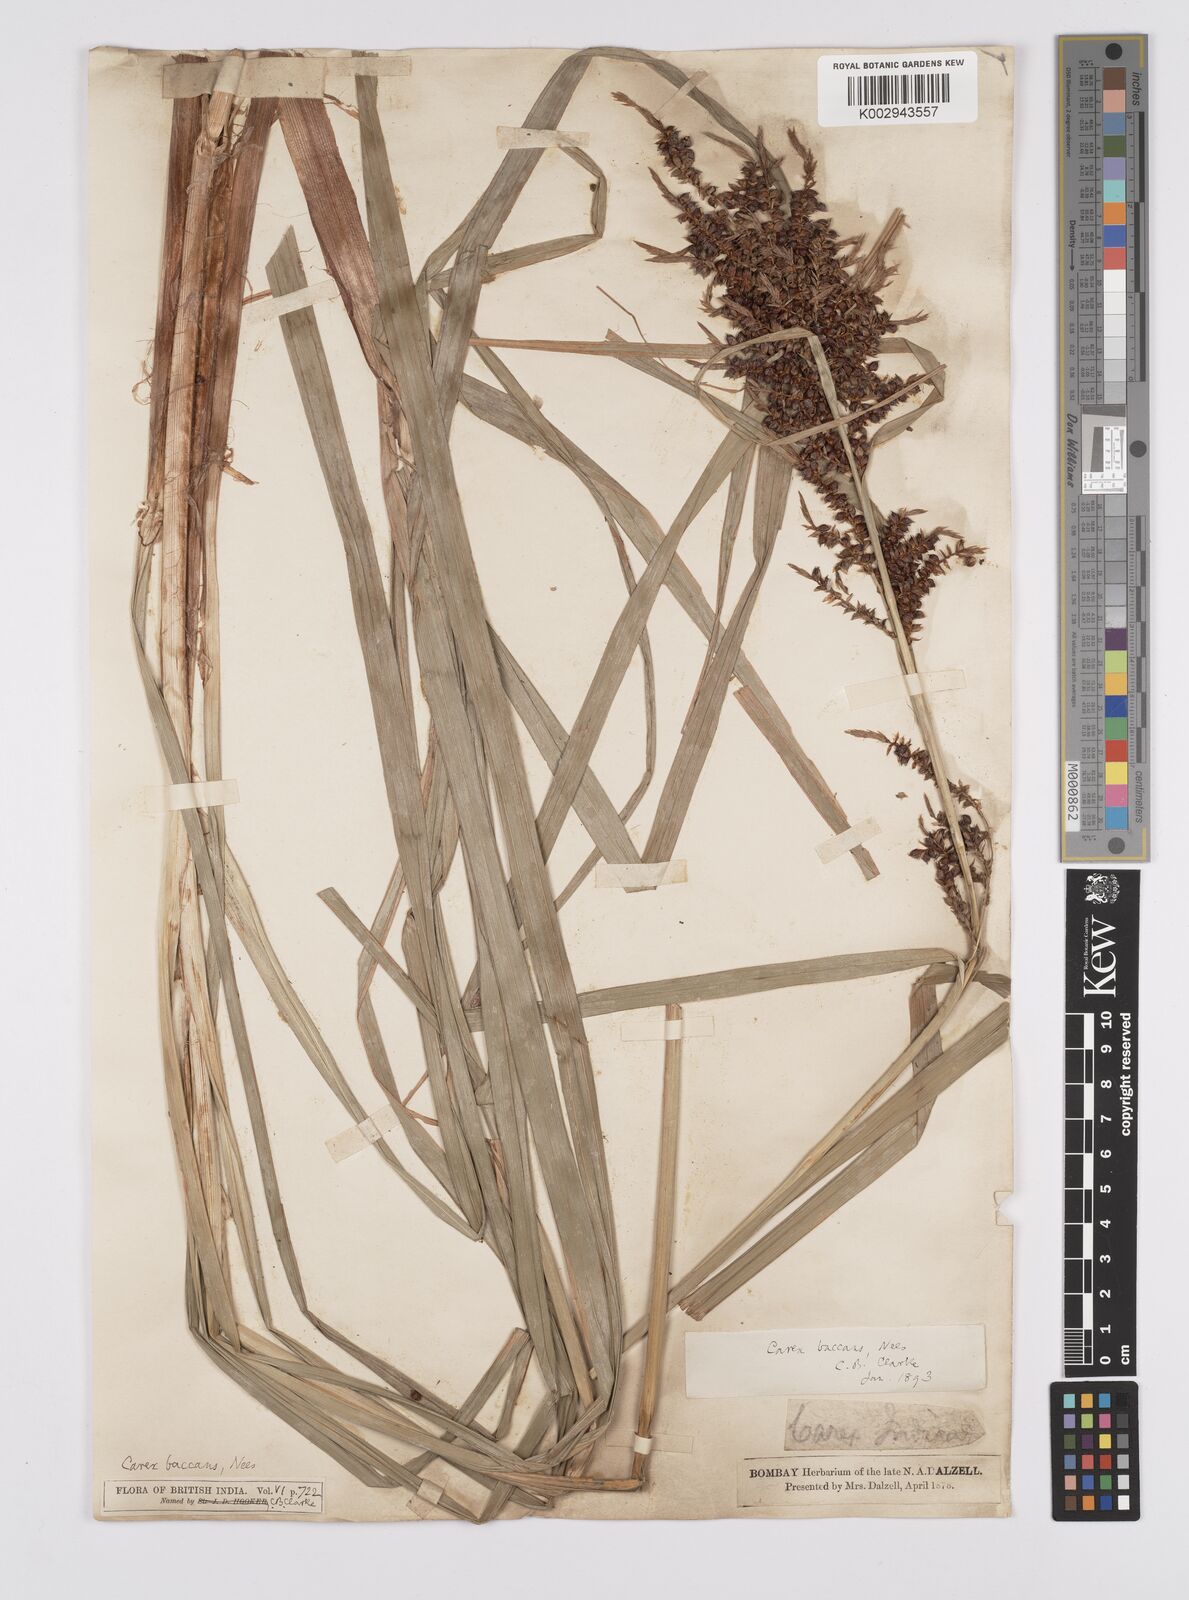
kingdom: Plantae
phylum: Tracheophyta
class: Liliopsida
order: Poales
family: Cyperaceae
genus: Carex
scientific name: Carex baccans
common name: Crimson seeded sedge
